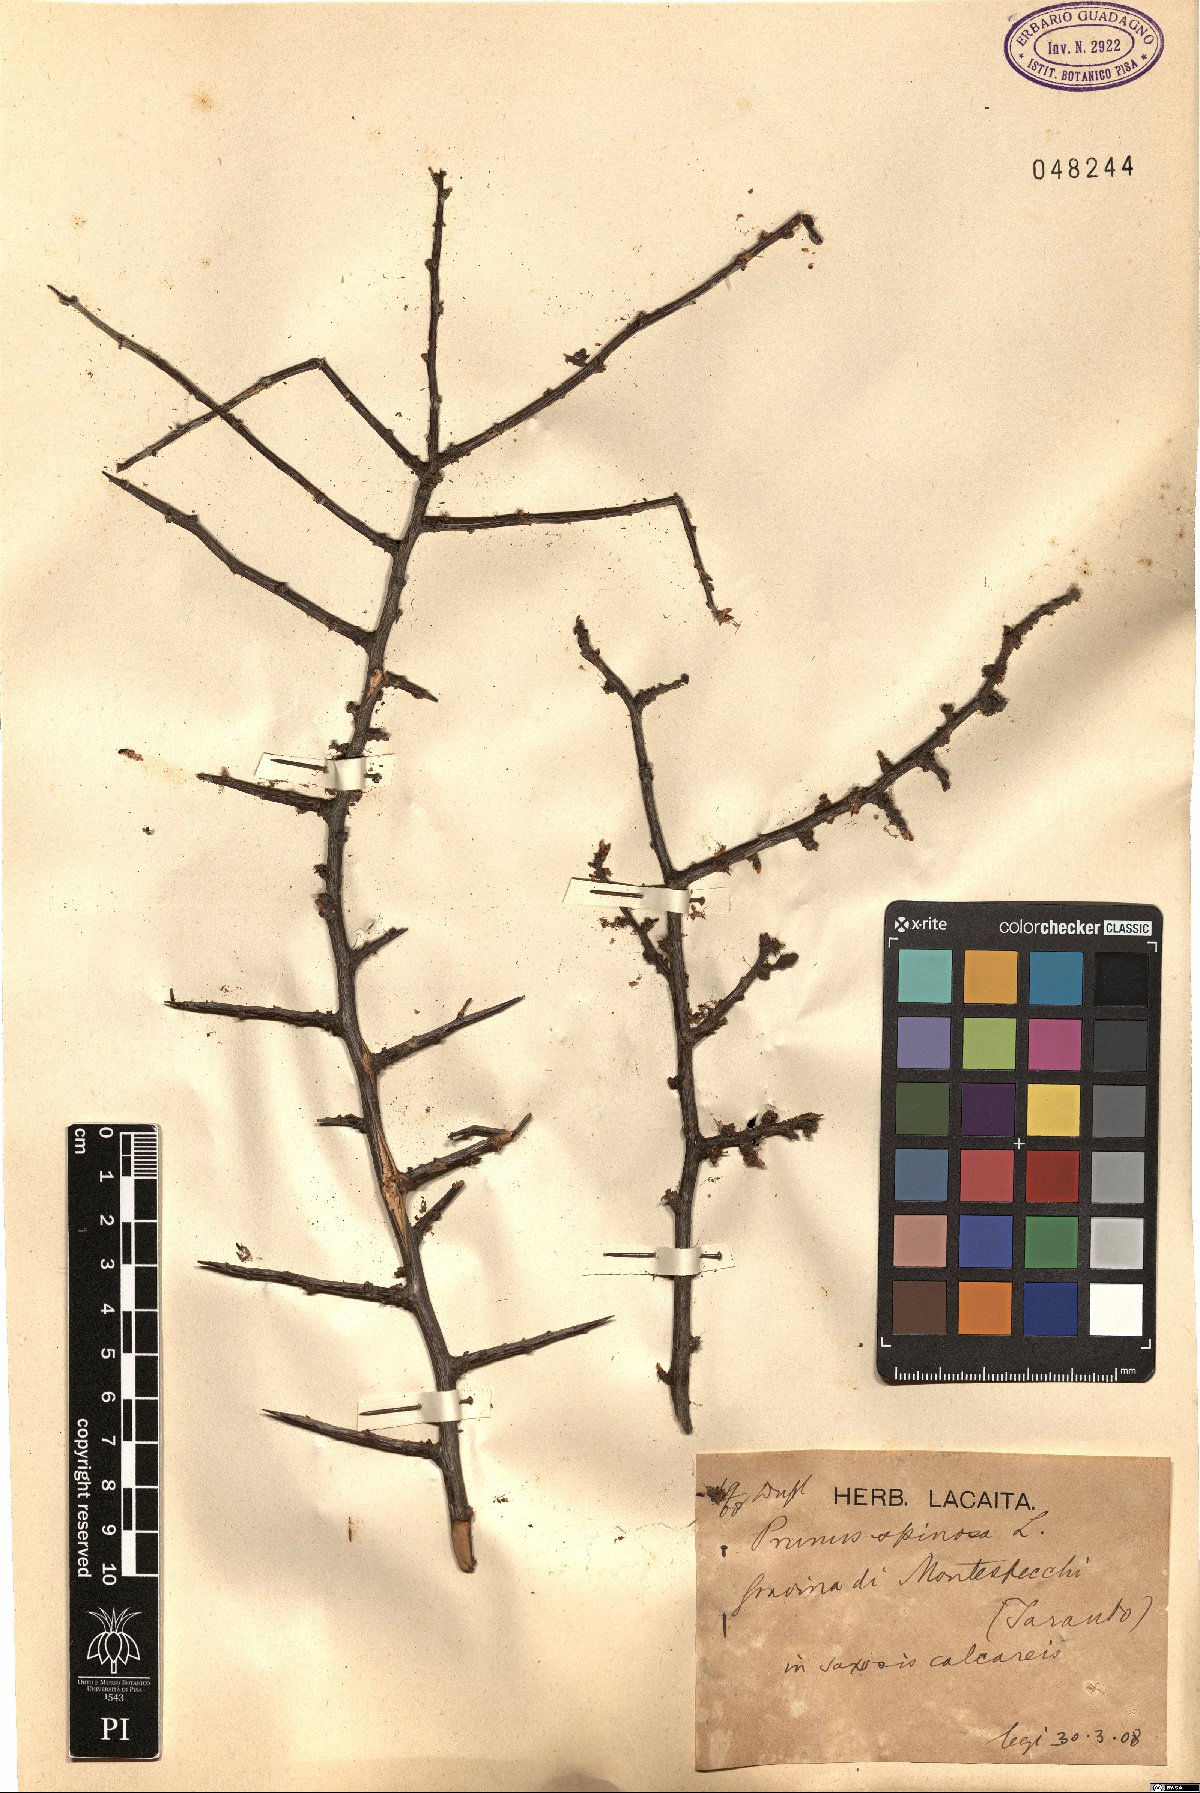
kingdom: Plantae
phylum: Tracheophyta
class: Magnoliopsida
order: Rosales
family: Rosaceae
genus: Prunus
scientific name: Prunus spinosa
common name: Blackthorn
